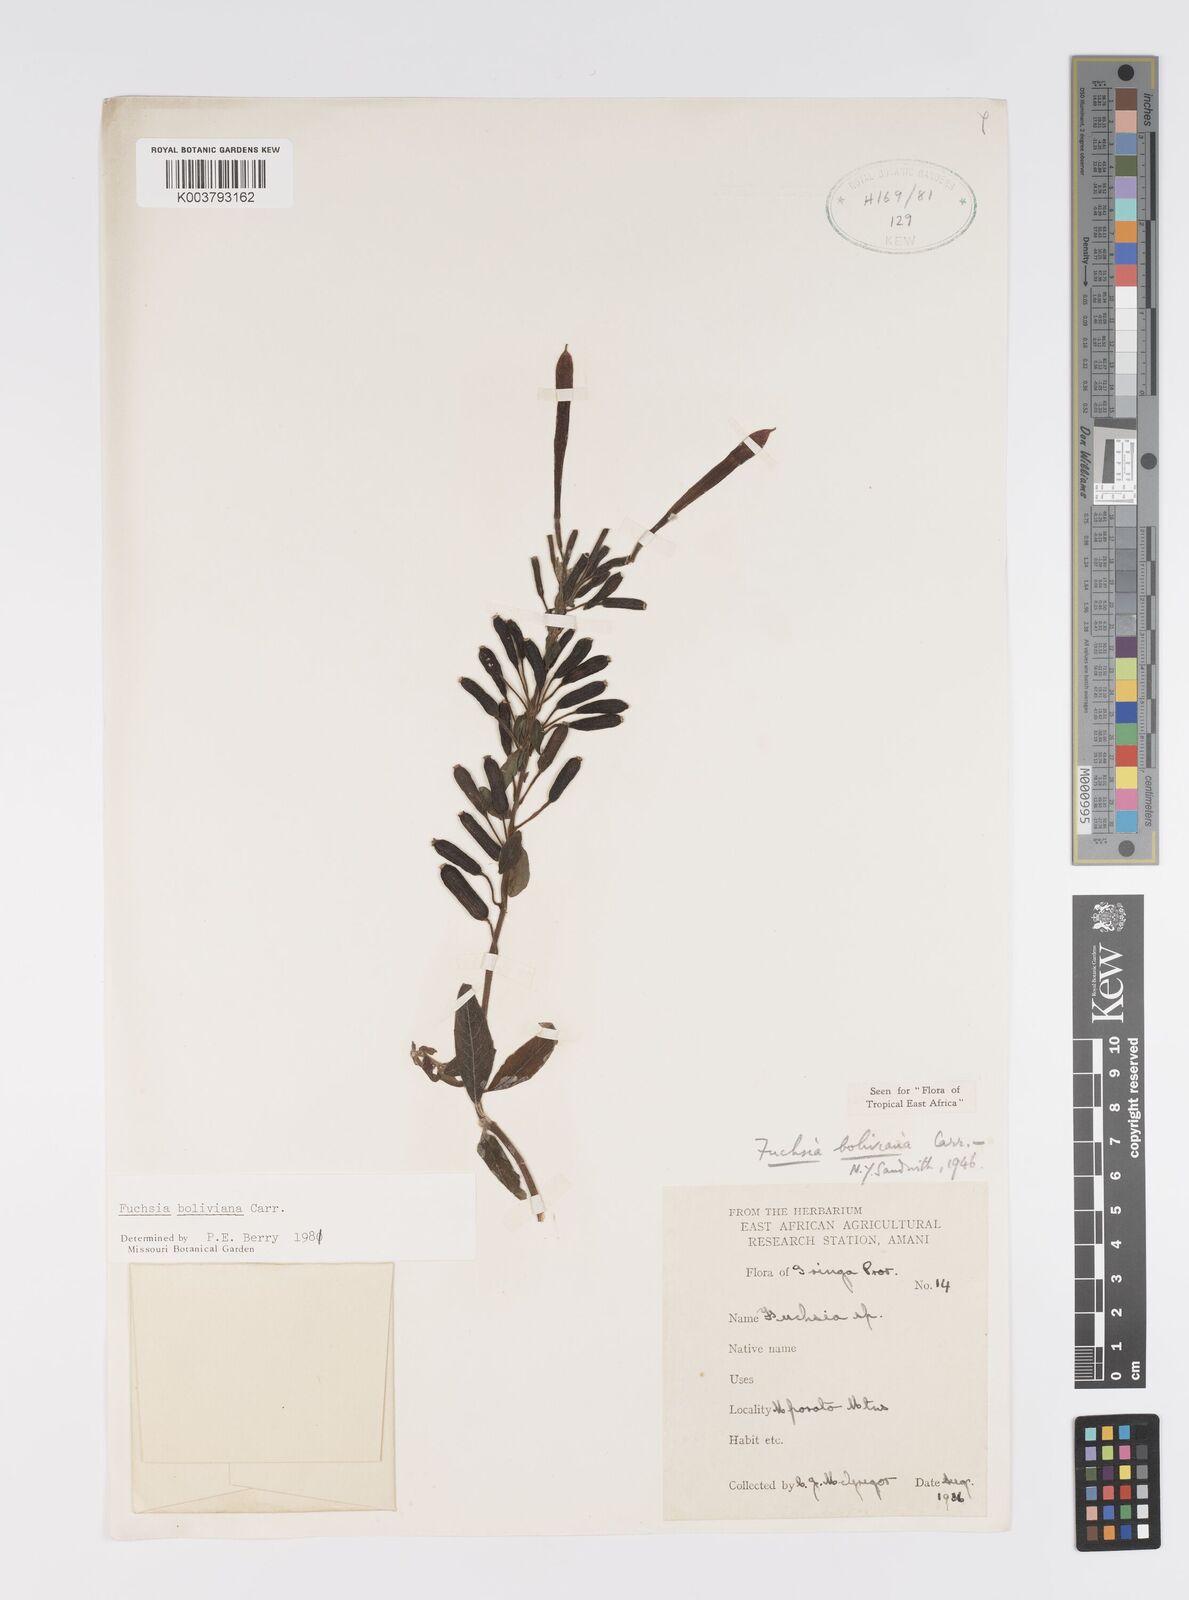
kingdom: Plantae
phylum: Tracheophyta
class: Magnoliopsida
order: Myrtales
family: Onagraceae
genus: Fuchsia
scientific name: Fuchsia boliviana
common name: Bolivian fuchsia
